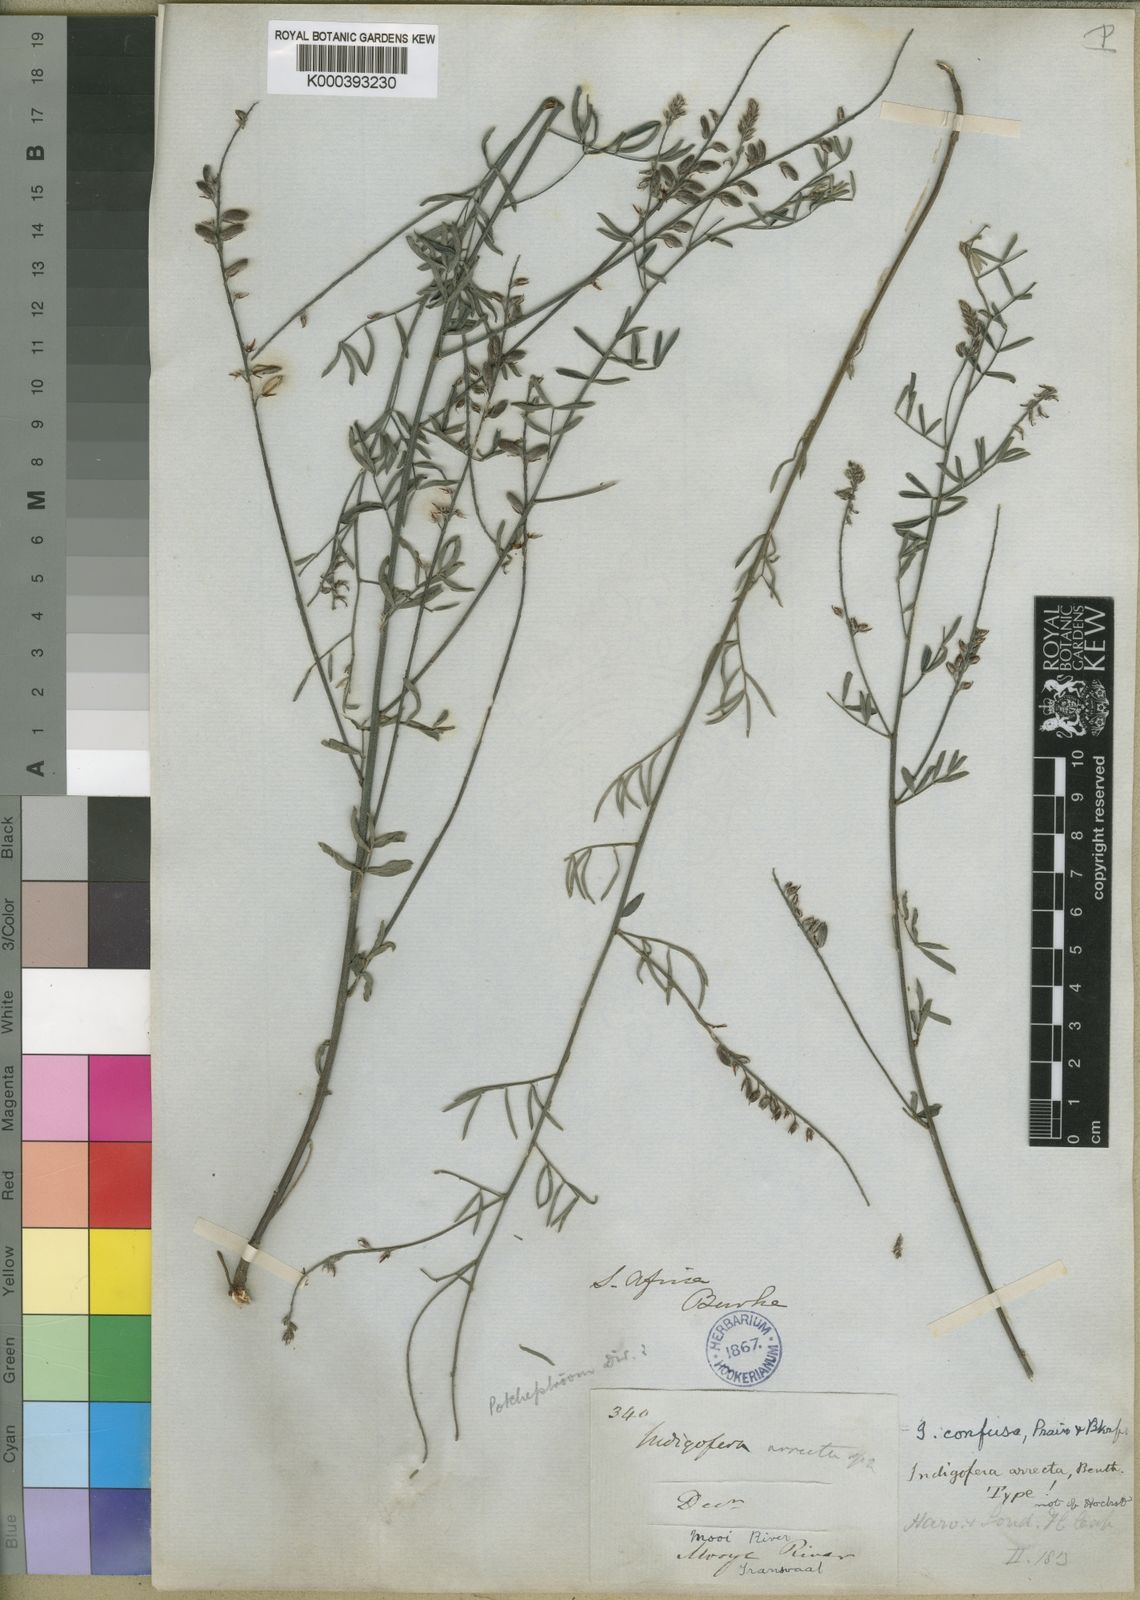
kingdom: Plantae
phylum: Tracheophyta
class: Magnoliopsida
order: Fabales
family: Fabaceae
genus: Indigofera
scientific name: Indigofera pretoriana
